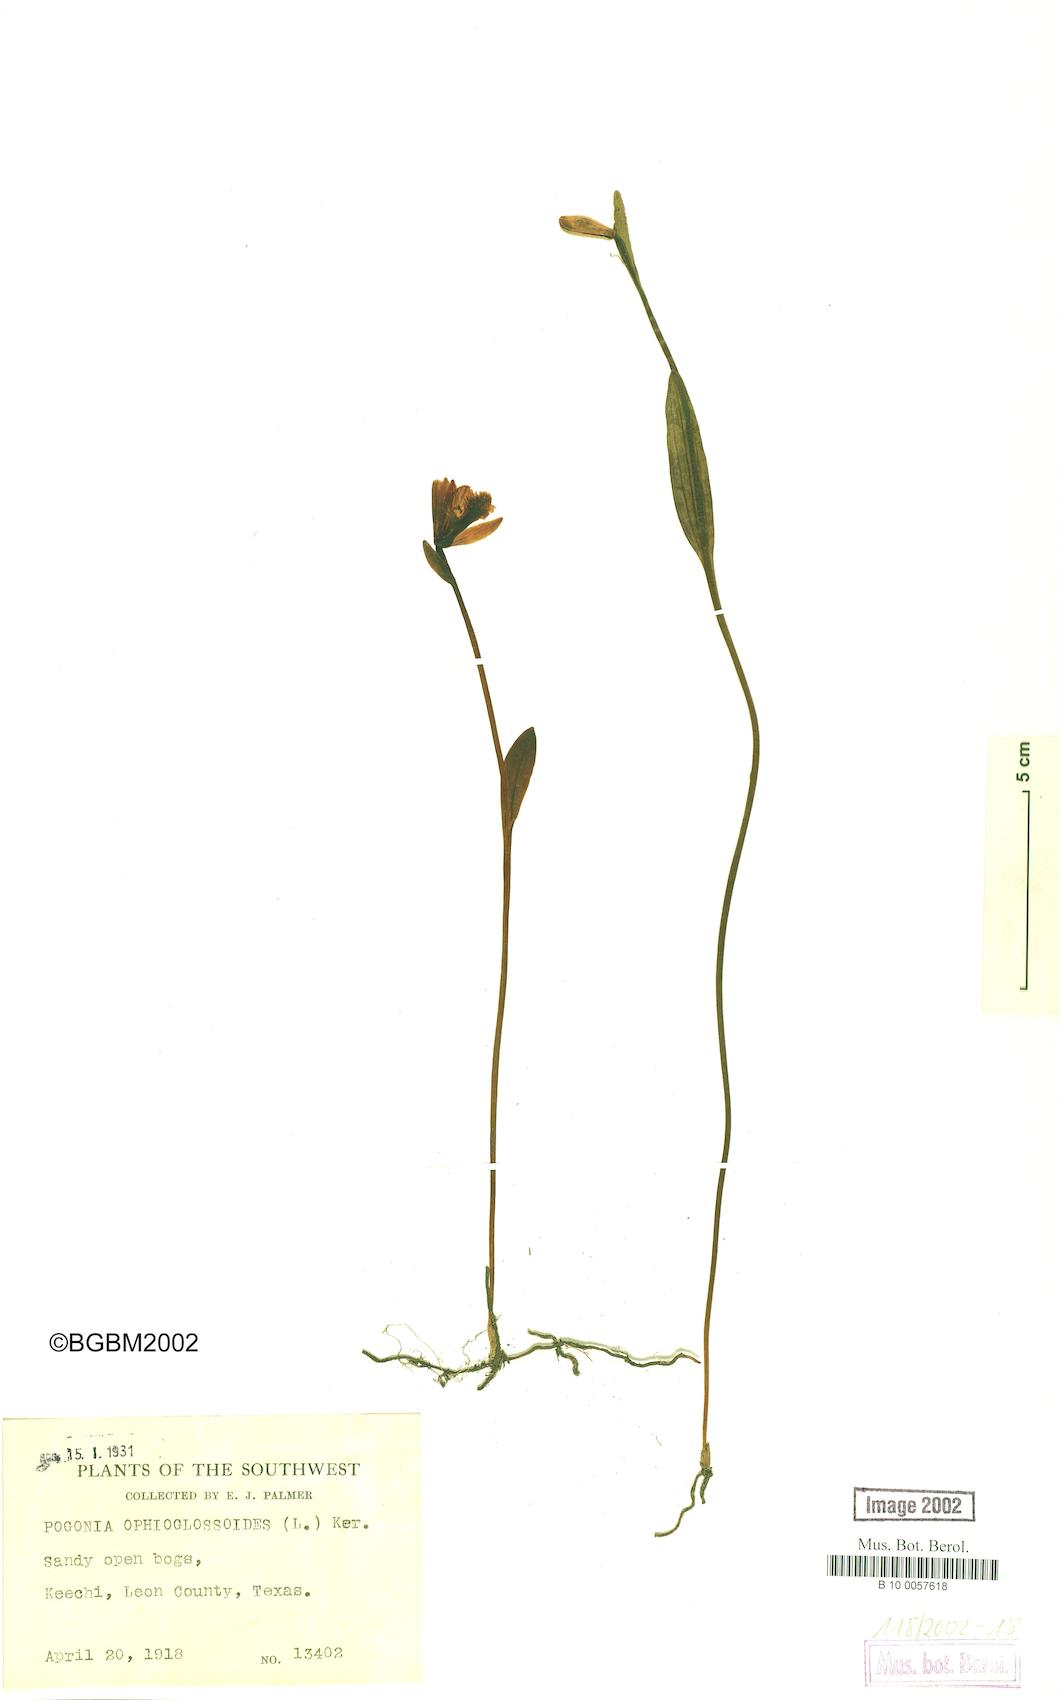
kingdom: Plantae
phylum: Tracheophyta
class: Liliopsida
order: Asparagales
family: Orchidaceae
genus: Pogonia
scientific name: Pogonia ophioglossoides
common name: Rose pogonia
